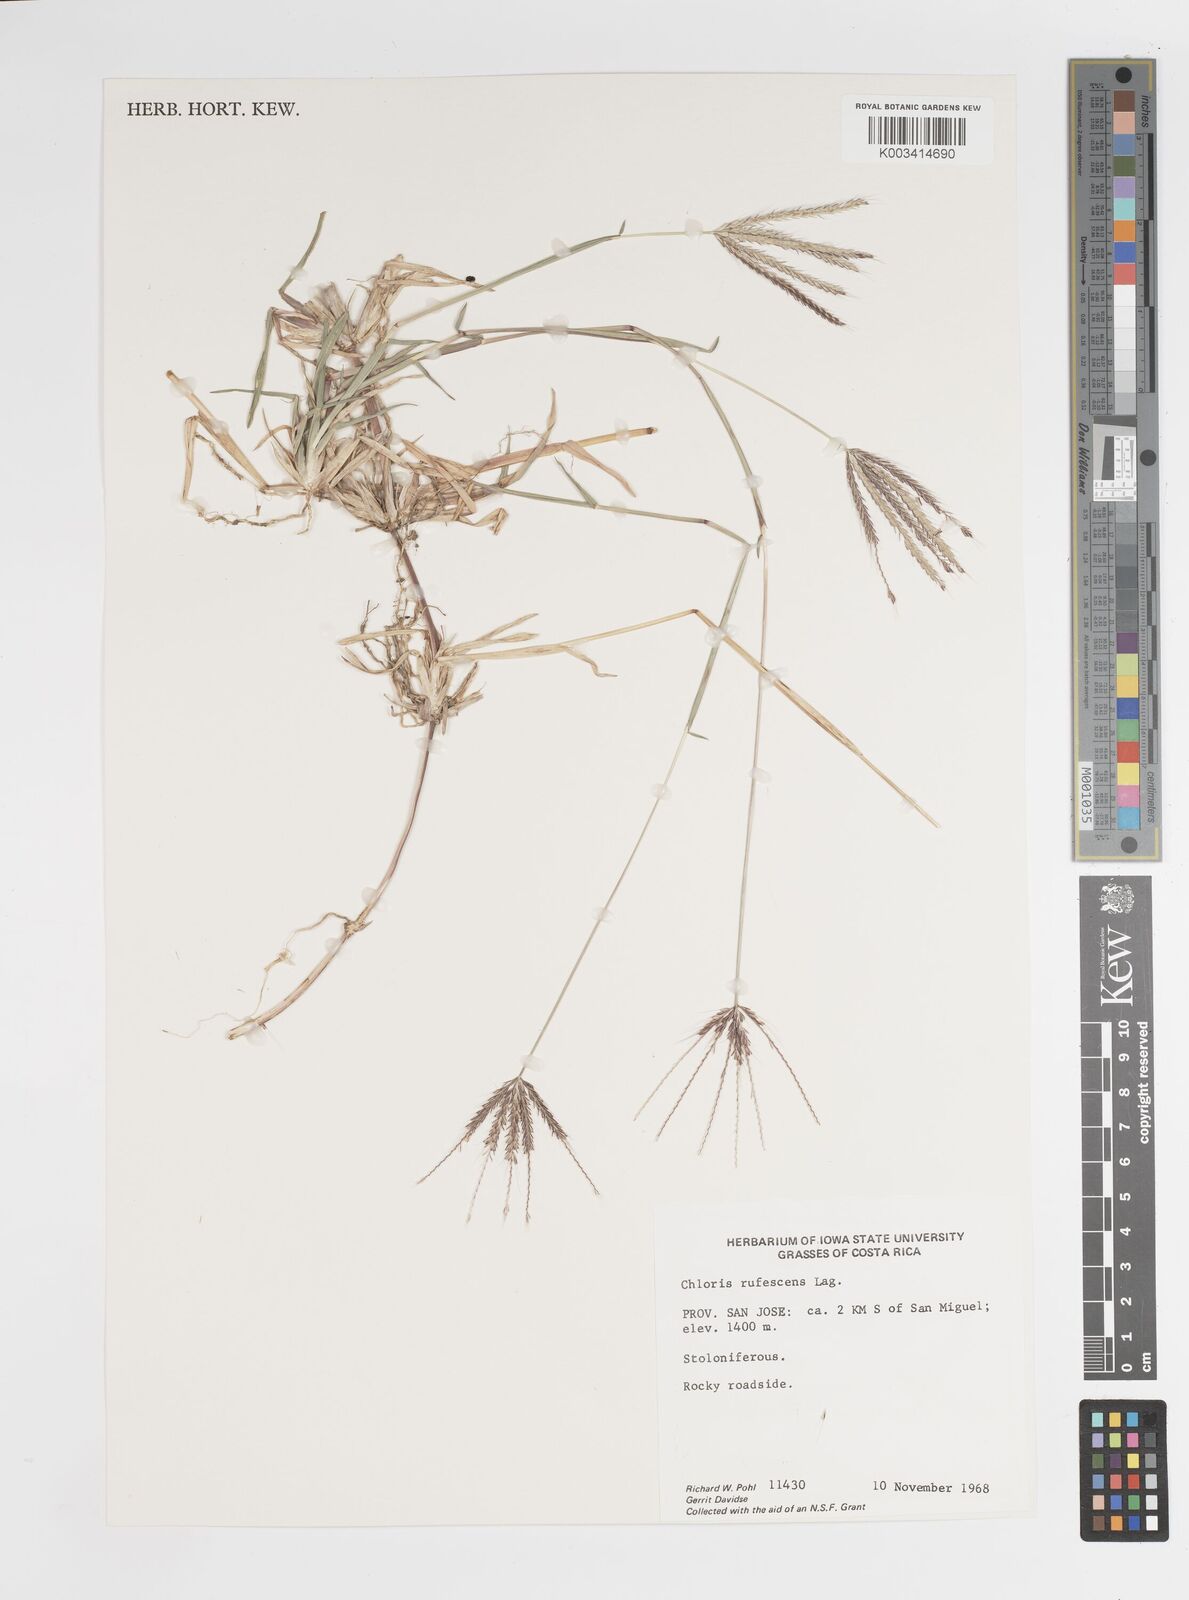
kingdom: Plantae
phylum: Tracheophyta
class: Liliopsida
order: Poales
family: Poaceae
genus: Chloris
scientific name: Chloris rufescens
